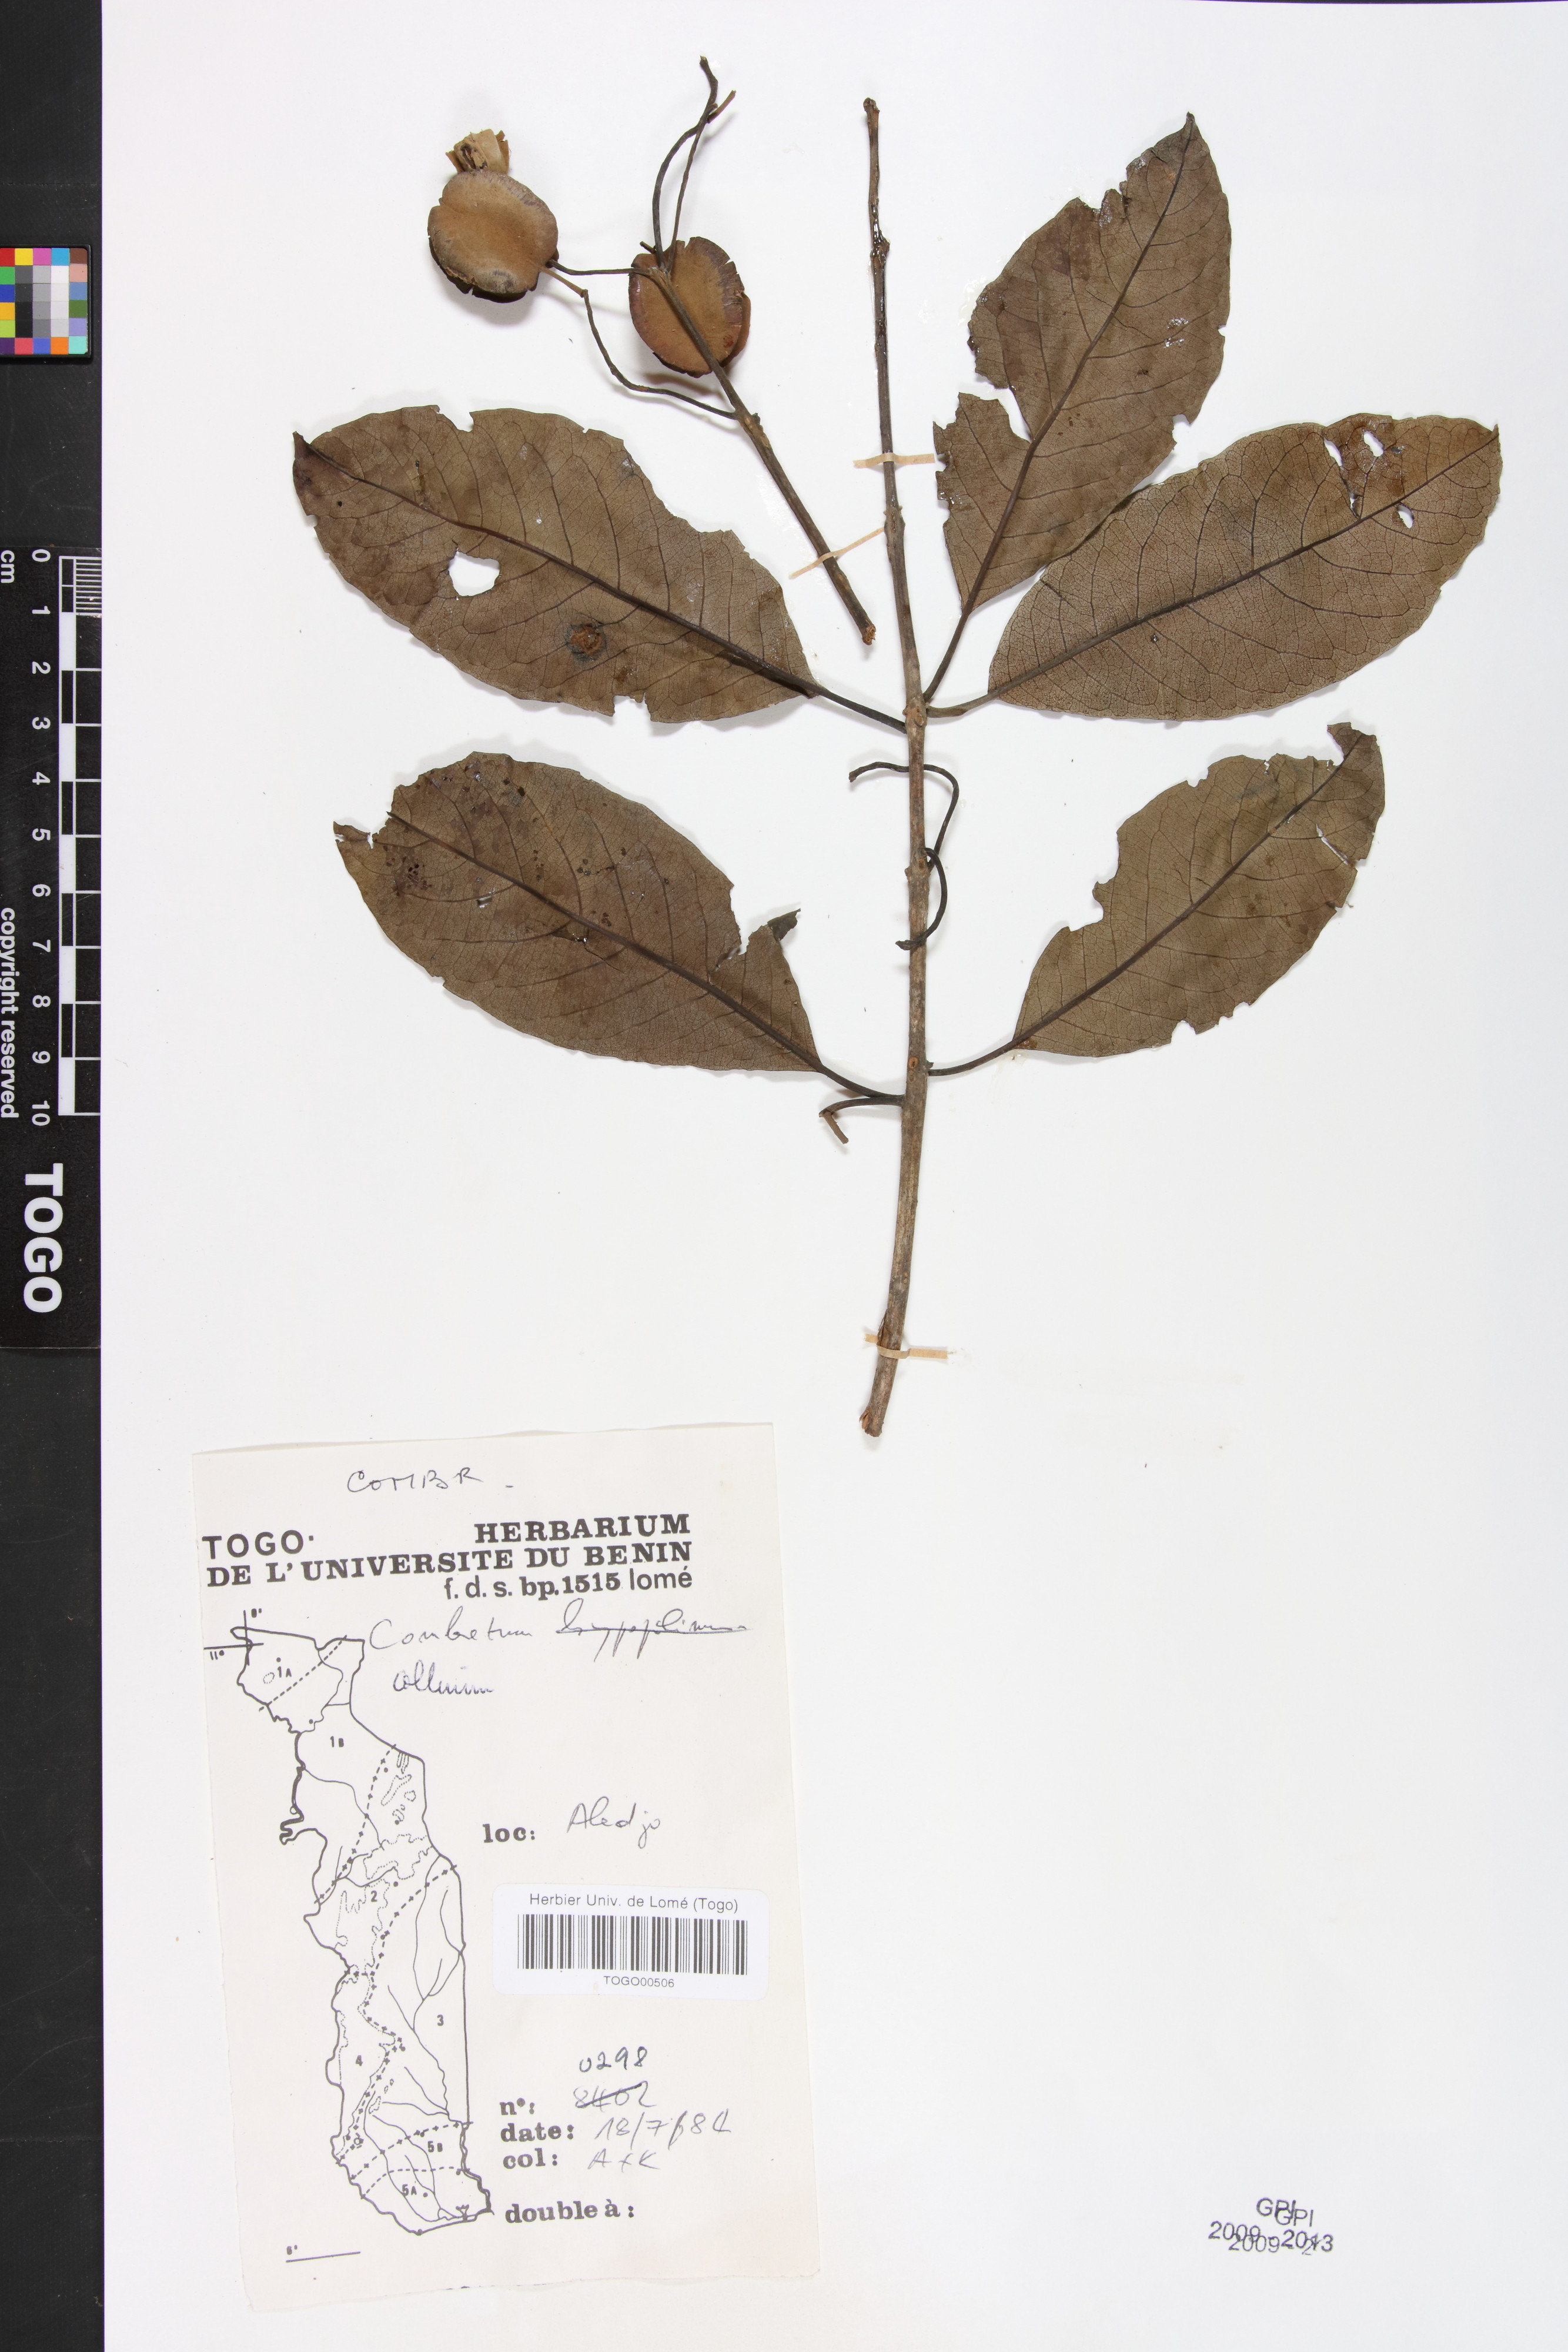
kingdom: Plantae
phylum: Tracheophyta
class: Magnoliopsida
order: Myrtales
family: Combretaceae
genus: Combretum
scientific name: Combretum collinum
